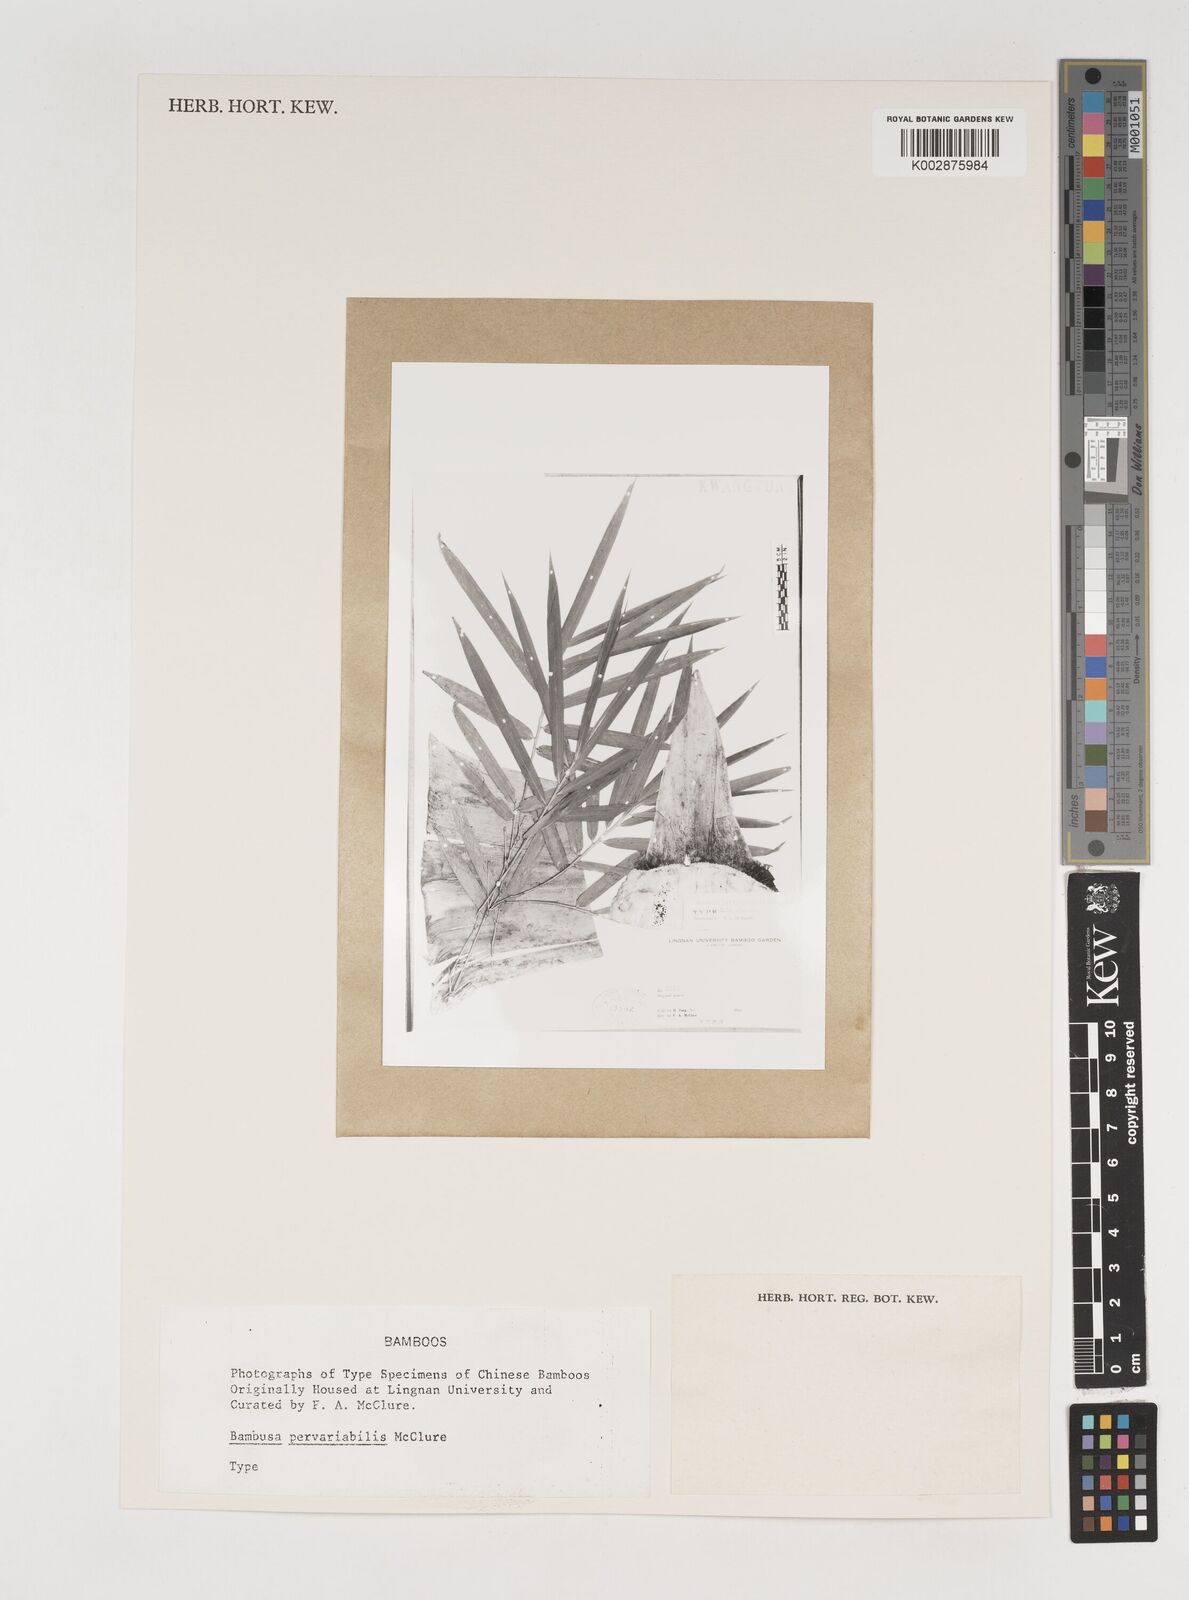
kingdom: Plantae
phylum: Tracheophyta
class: Liliopsida
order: Poales
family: Poaceae
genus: Bambusa
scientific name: Bambusa pervariabilis
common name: Puntingpole bamboo
